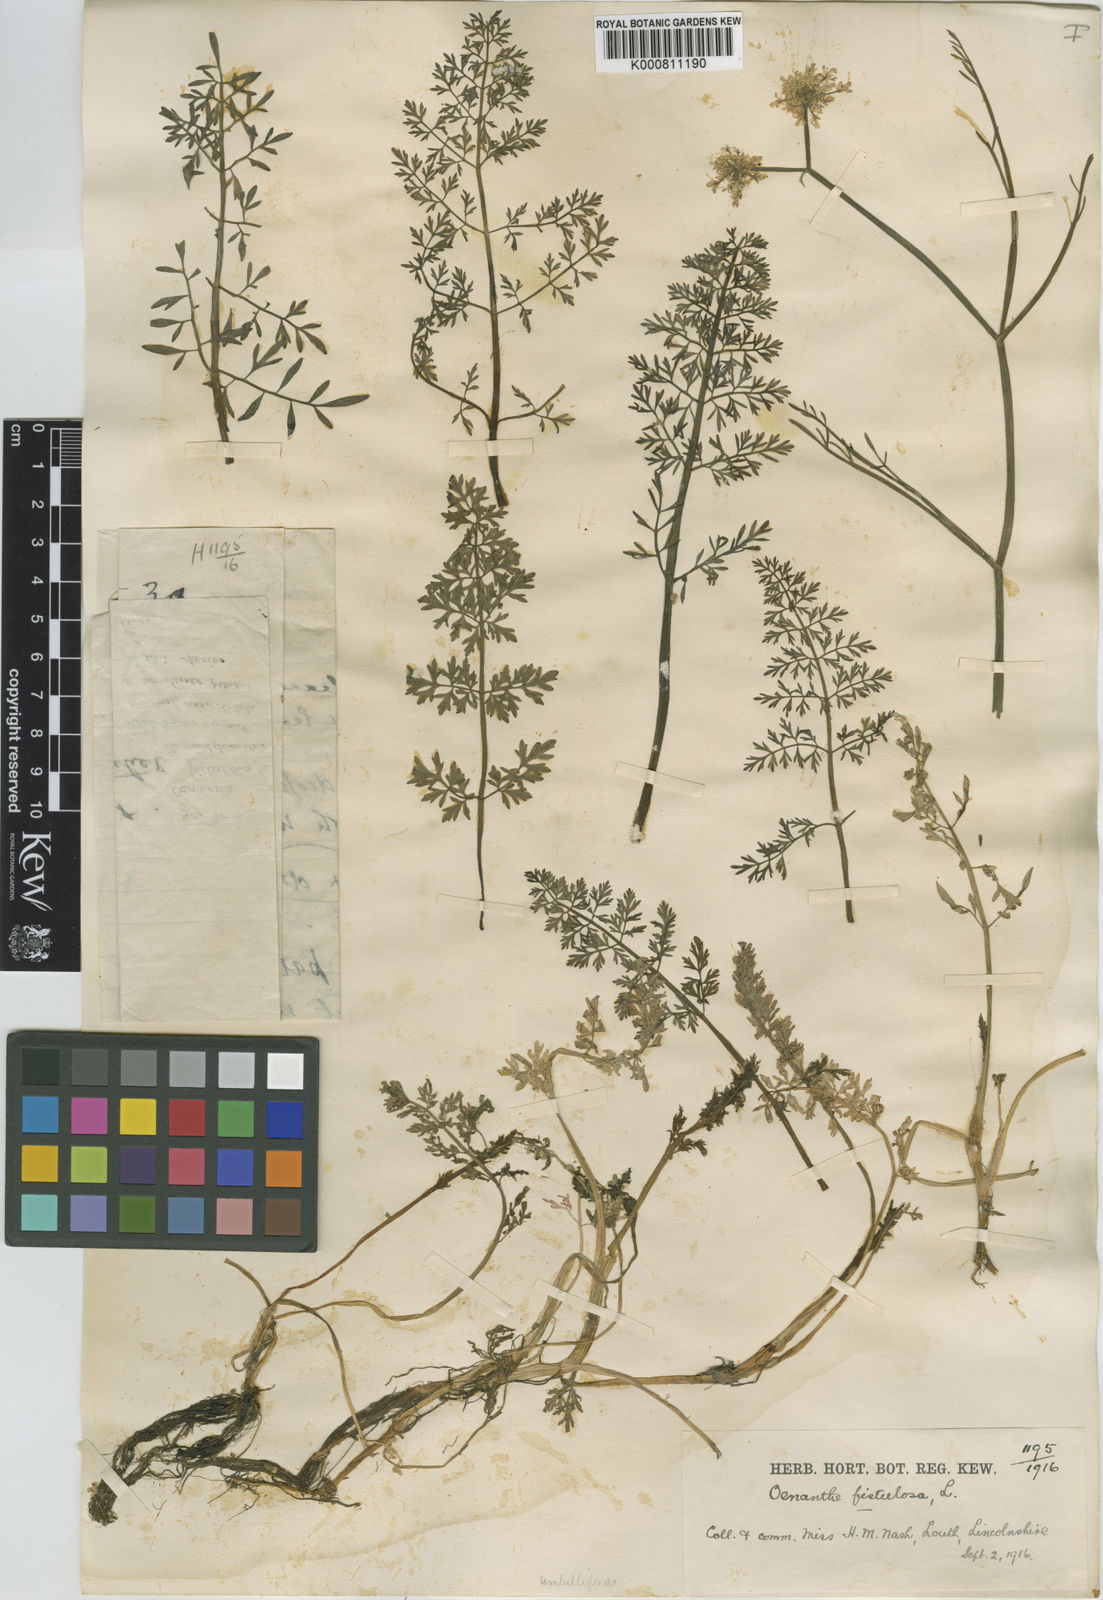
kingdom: Plantae
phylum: Tracheophyta
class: Magnoliopsida
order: Apiales
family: Apiaceae
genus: Oenanthe
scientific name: Oenanthe fistulosa
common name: Tubular water-dropwort
